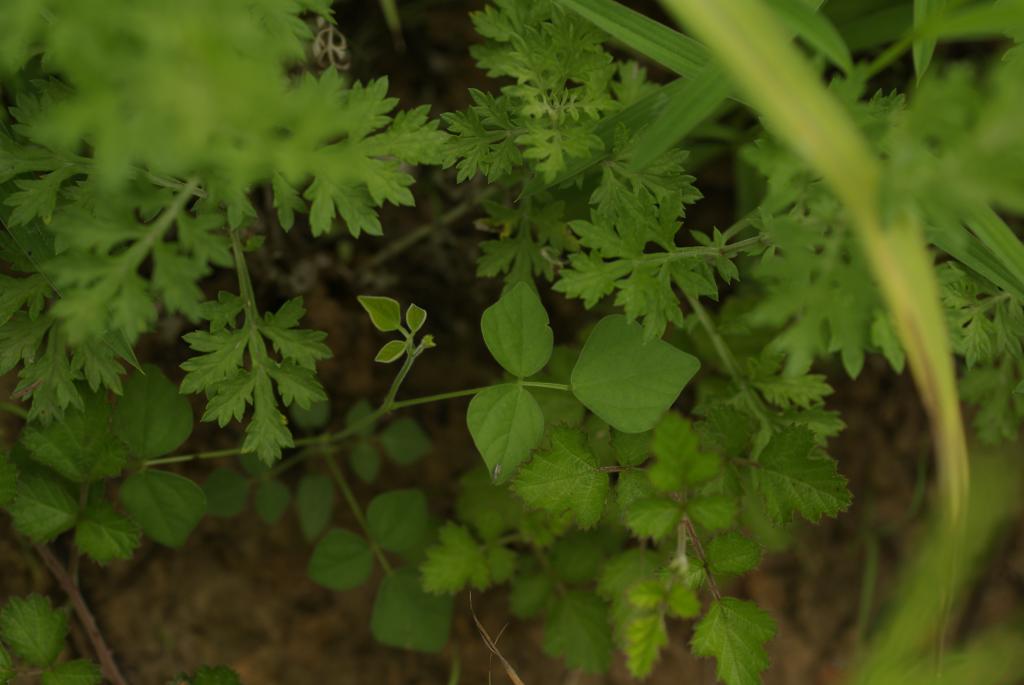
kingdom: Plantae
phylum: Tracheophyta
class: Magnoliopsida
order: Fabales
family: Fabaceae
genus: Dunbaria
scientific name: Dunbaria punctata
